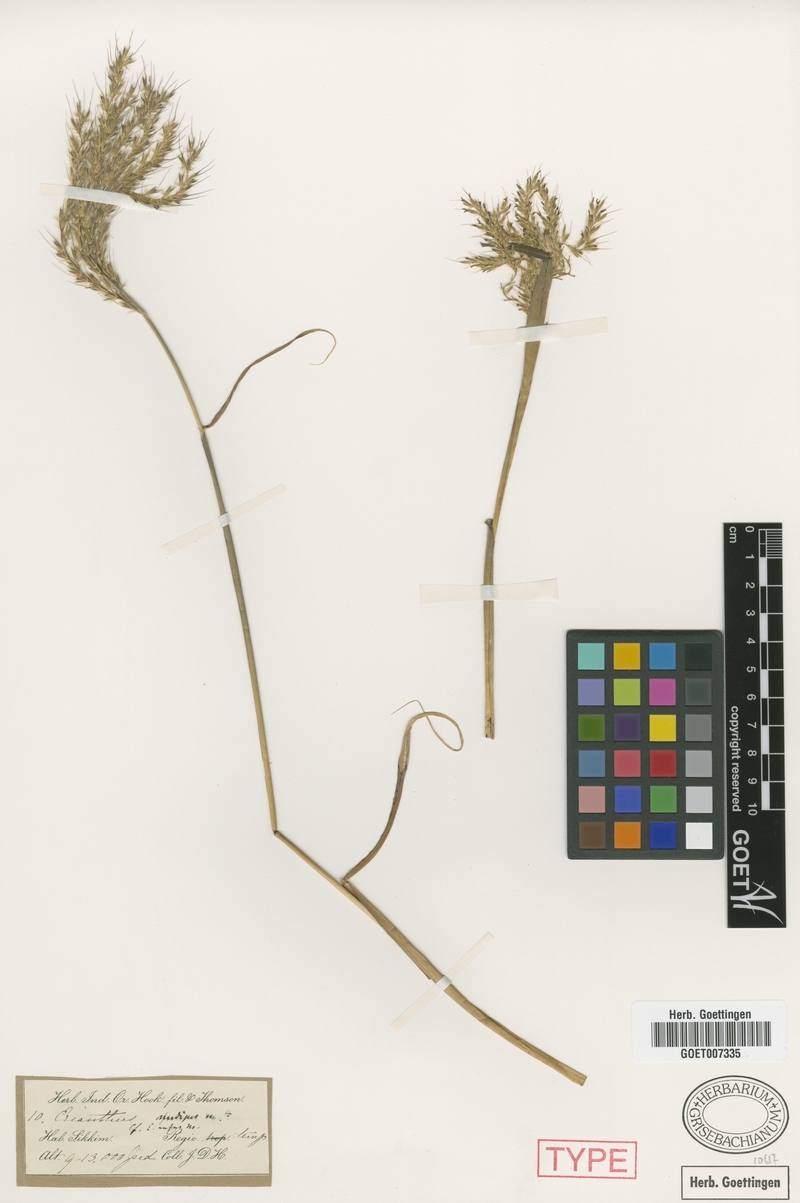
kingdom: Plantae
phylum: Tracheophyta
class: Liliopsida
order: Poales
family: Poaceae
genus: Miscanthus
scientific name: Miscanthus nudipes
